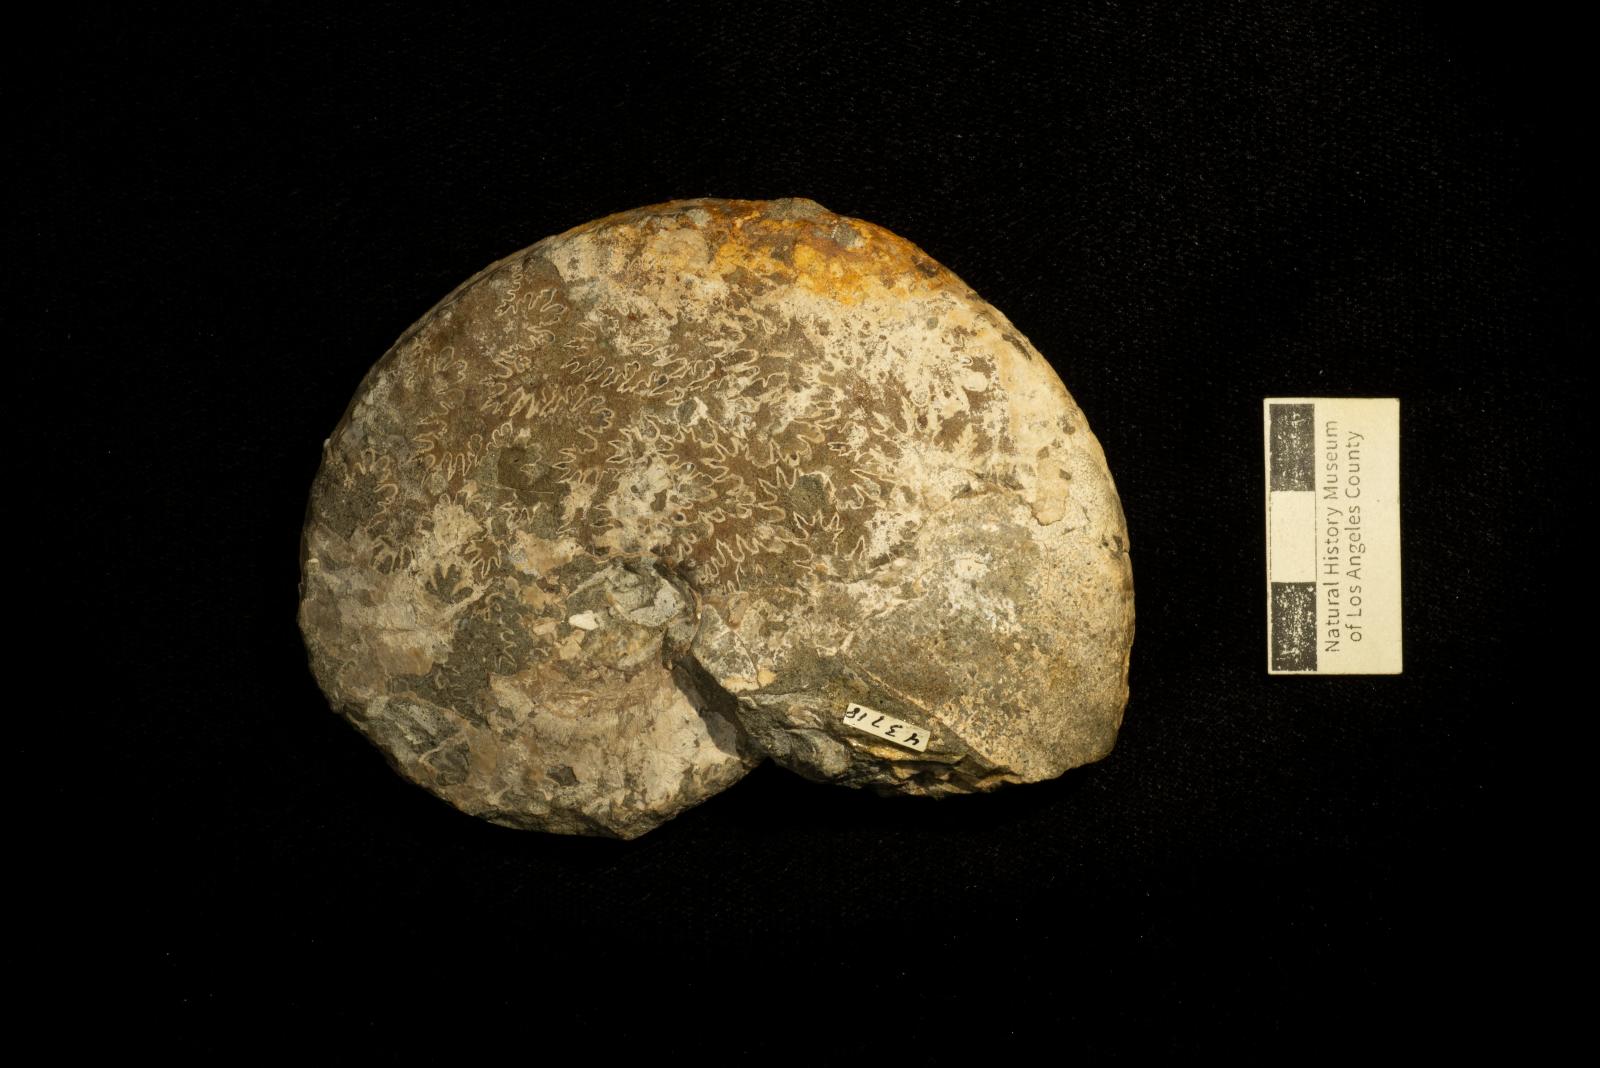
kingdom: Animalia
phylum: Mollusca
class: Cephalopoda
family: Collignoniceratidae
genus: Submortoniceras
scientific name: Submortoniceras
